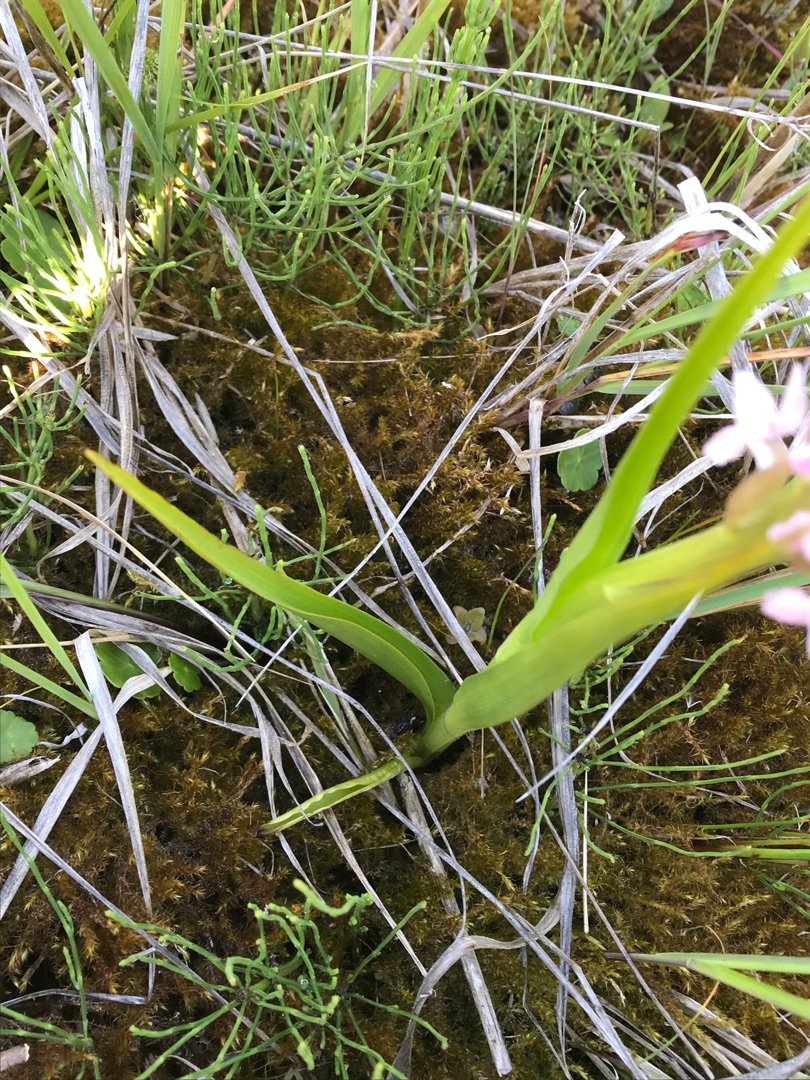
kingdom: Plantae
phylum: Tracheophyta
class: Liliopsida
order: Asparagales
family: Orchidaceae
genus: Dactylorhiza
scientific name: Dactylorhiza incarnata
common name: Kødfarvet gøgeurt
